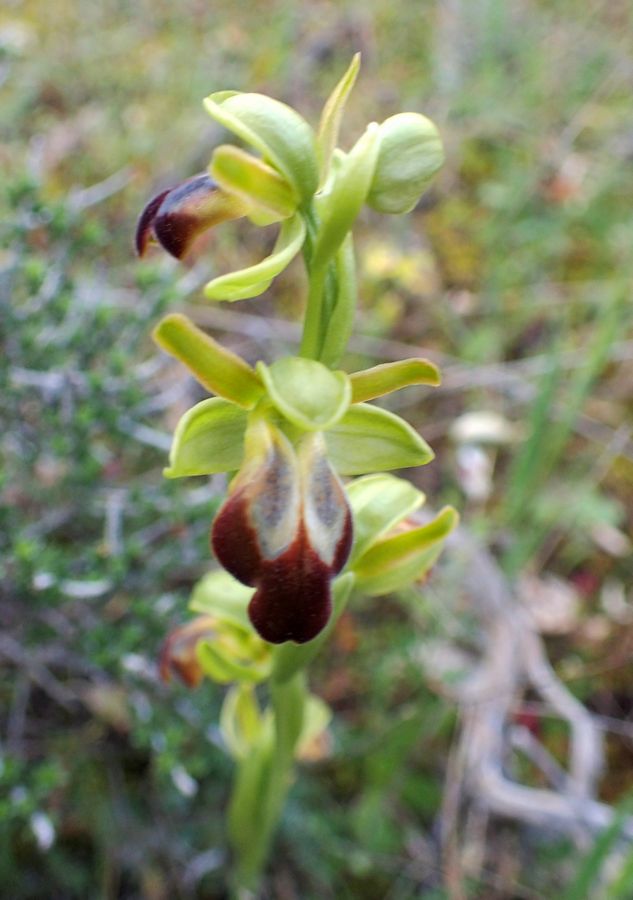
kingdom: Plantae
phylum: Tracheophyta
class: Liliopsida
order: Asparagales
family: Orchidaceae
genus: Ophrys
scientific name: Ophrys fusca
